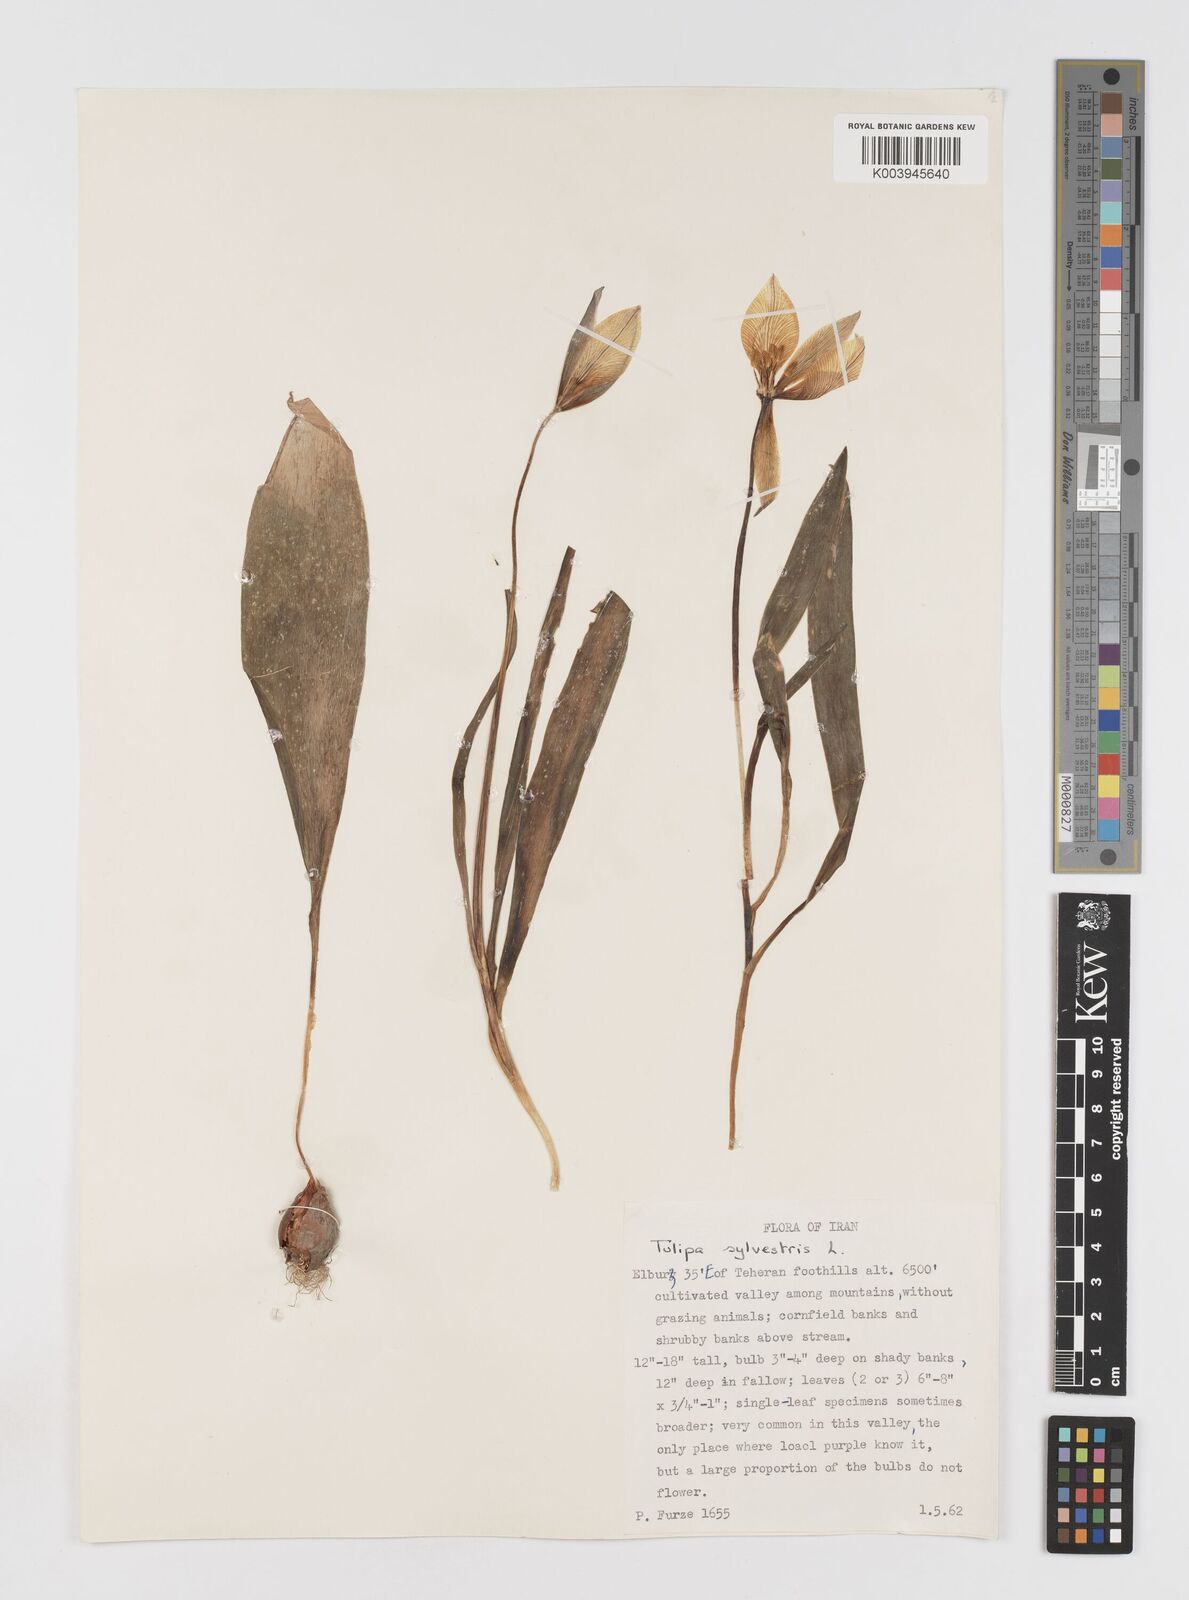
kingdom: Plantae
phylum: Tracheophyta
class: Liliopsida
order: Liliales
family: Liliaceae
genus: Tulipa
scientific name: Tulipa sylvestris
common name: Wild tulip
